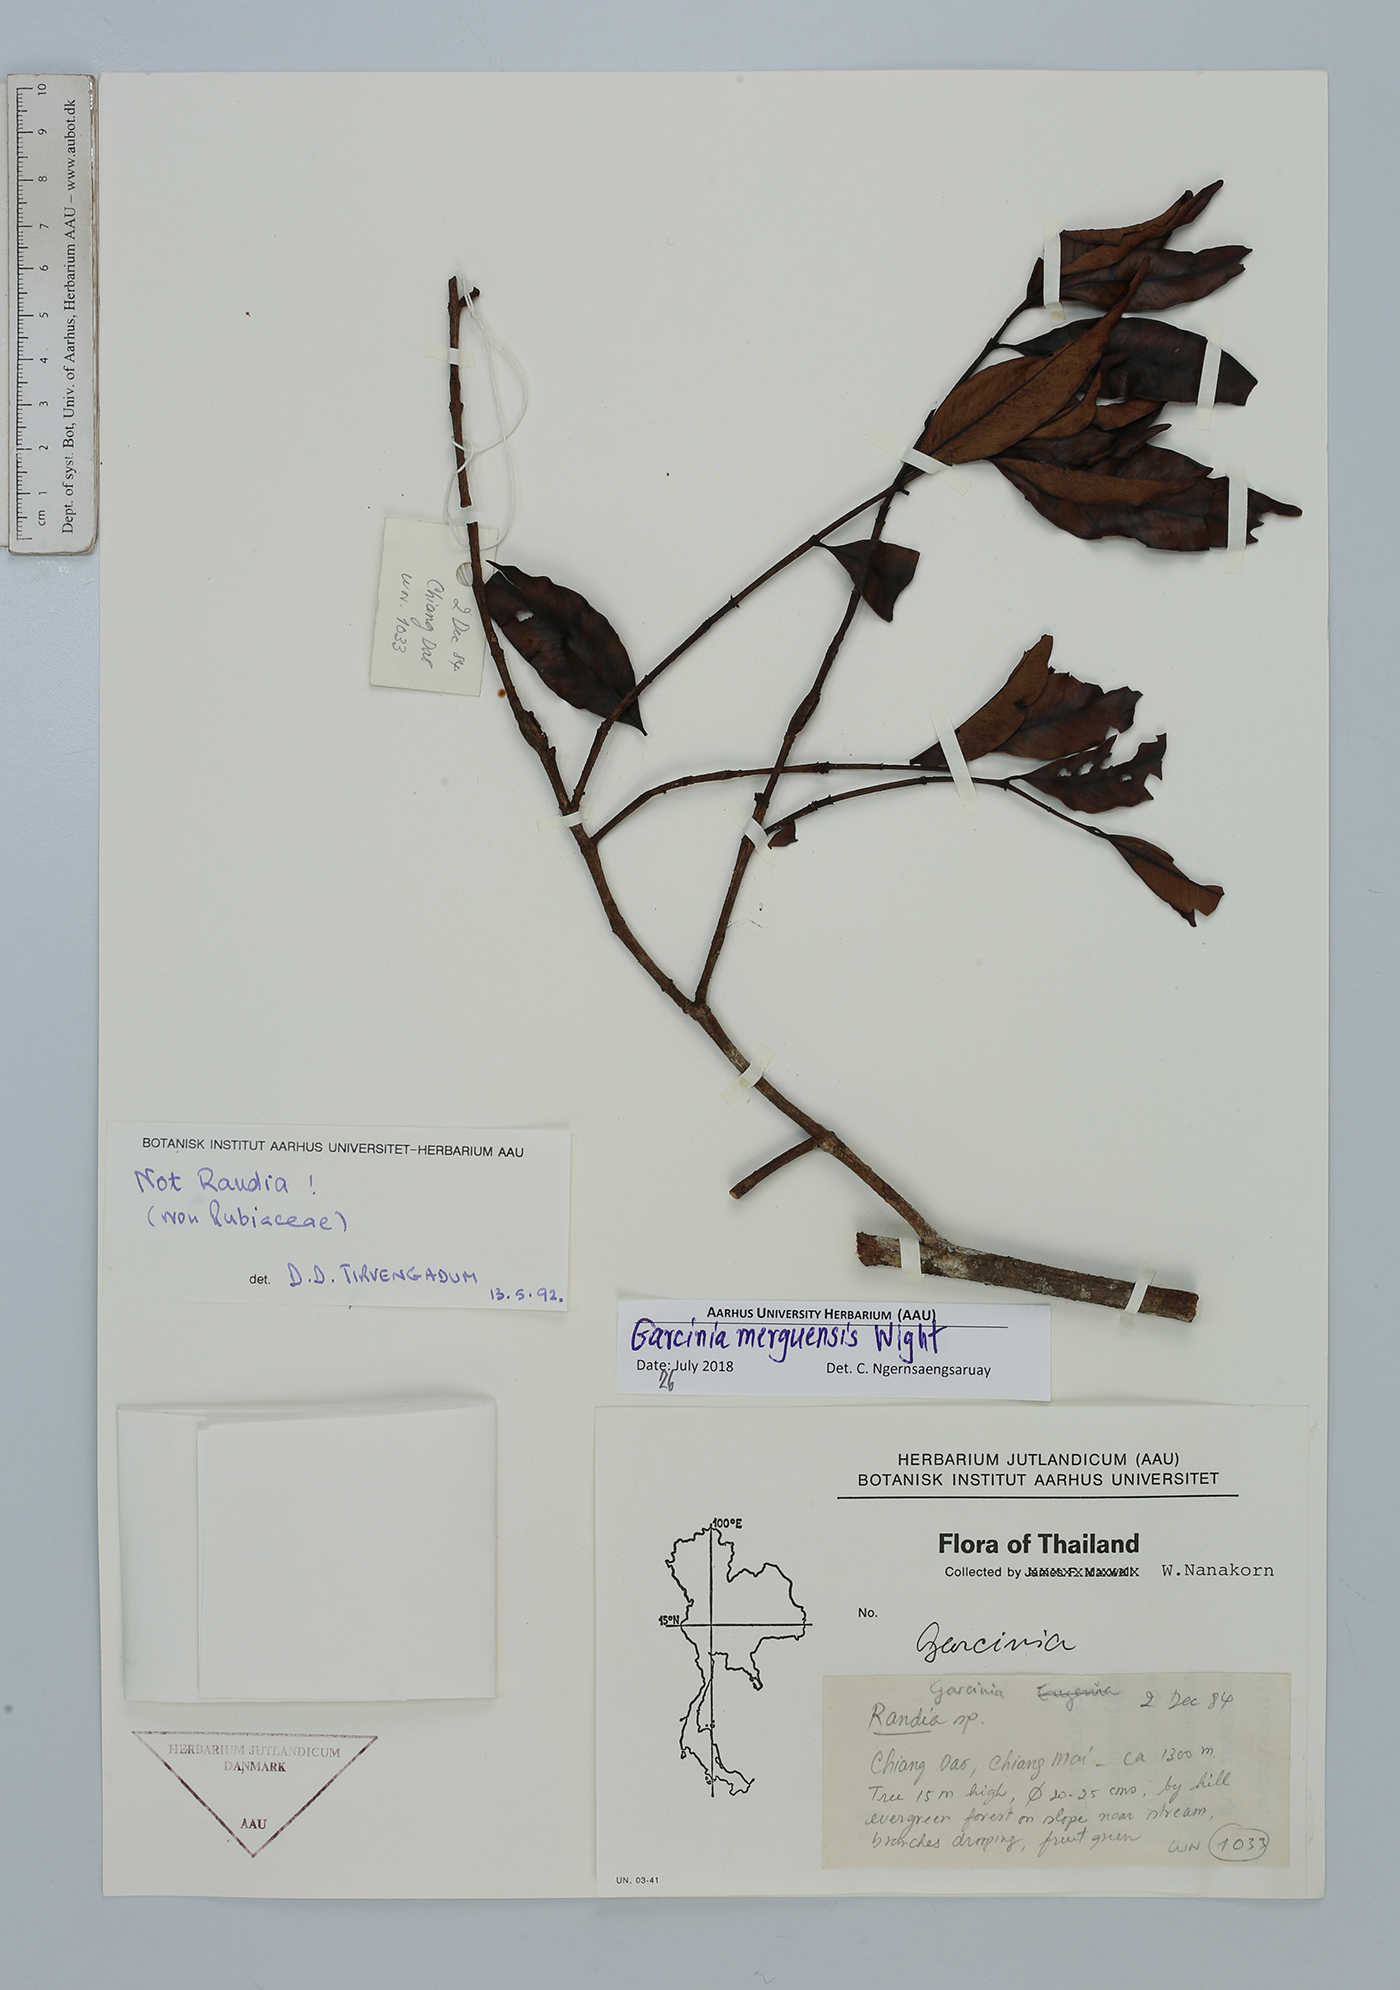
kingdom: Plantae
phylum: Tracheophyta
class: Magnoliopsida
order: Malpighiales
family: Clusiaceae
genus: Garcinia
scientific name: Garcinia merguensis
